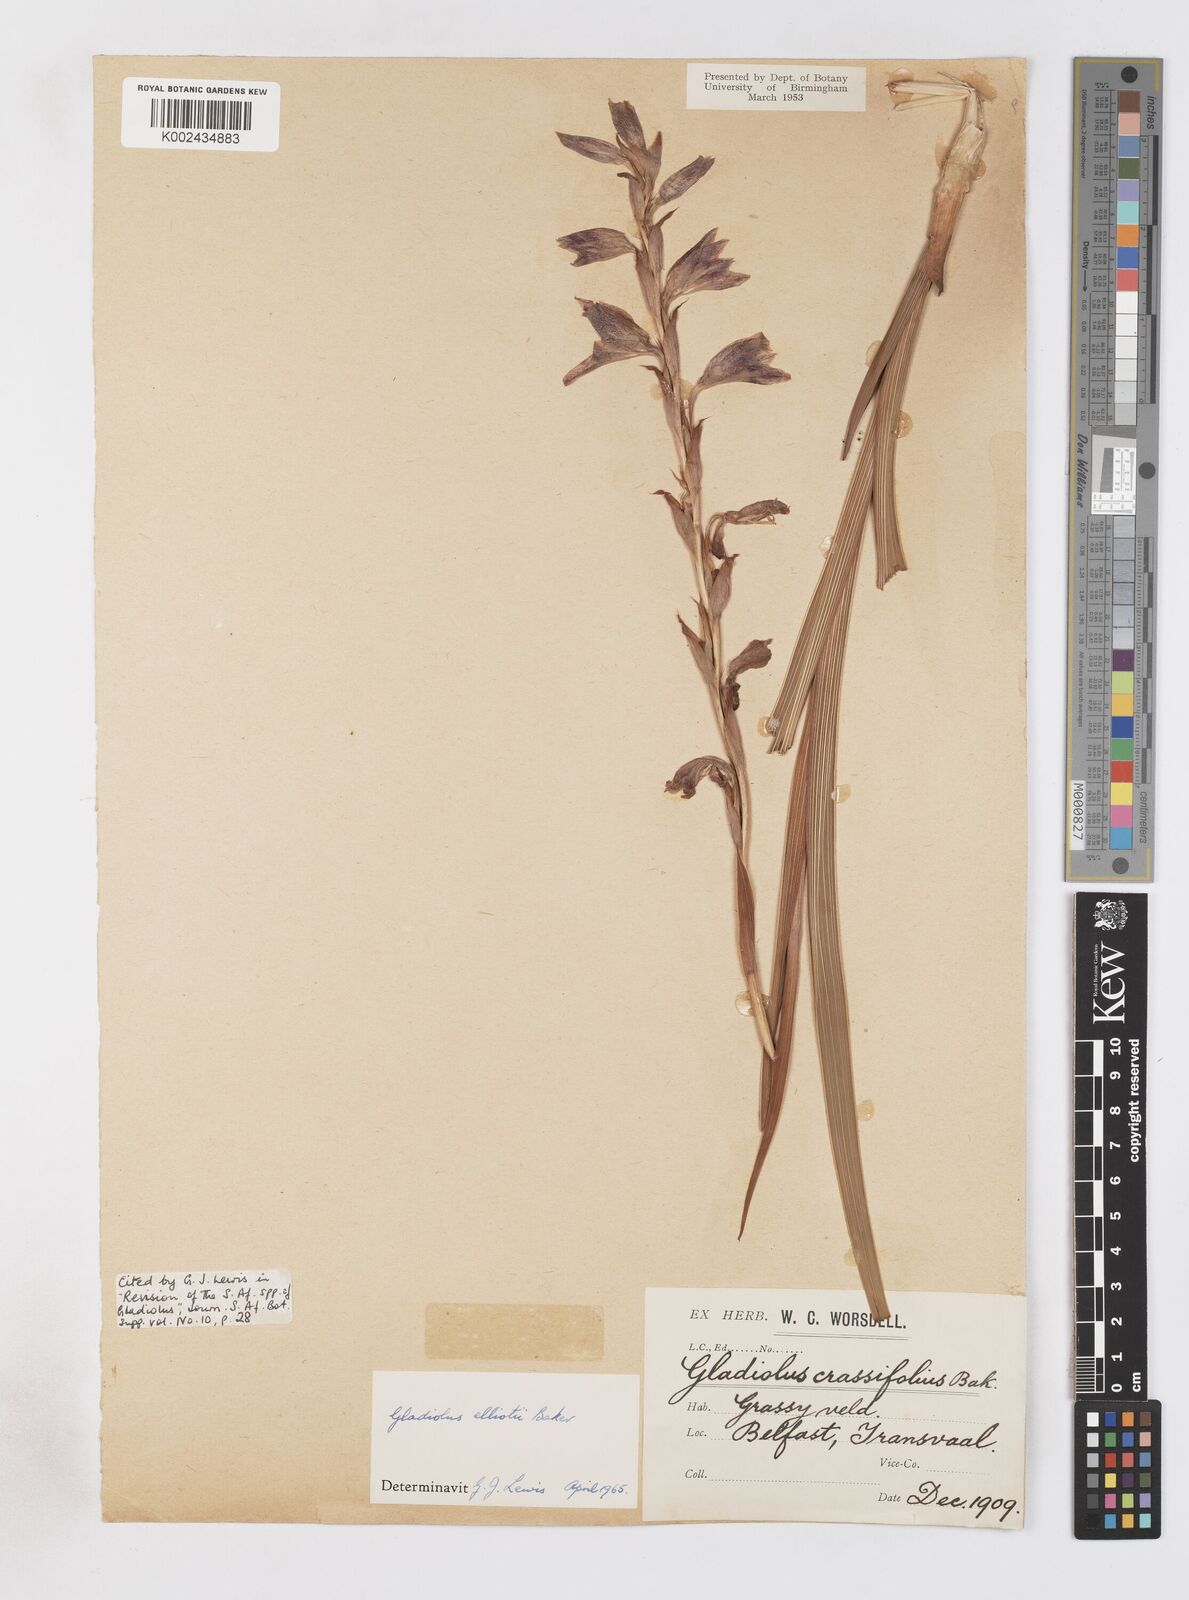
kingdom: Plantae
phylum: Tracheophyta
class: Liliopsida
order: Asparagales
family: Iridaceae
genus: Gladiolus
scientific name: Gladiolus elliotii
